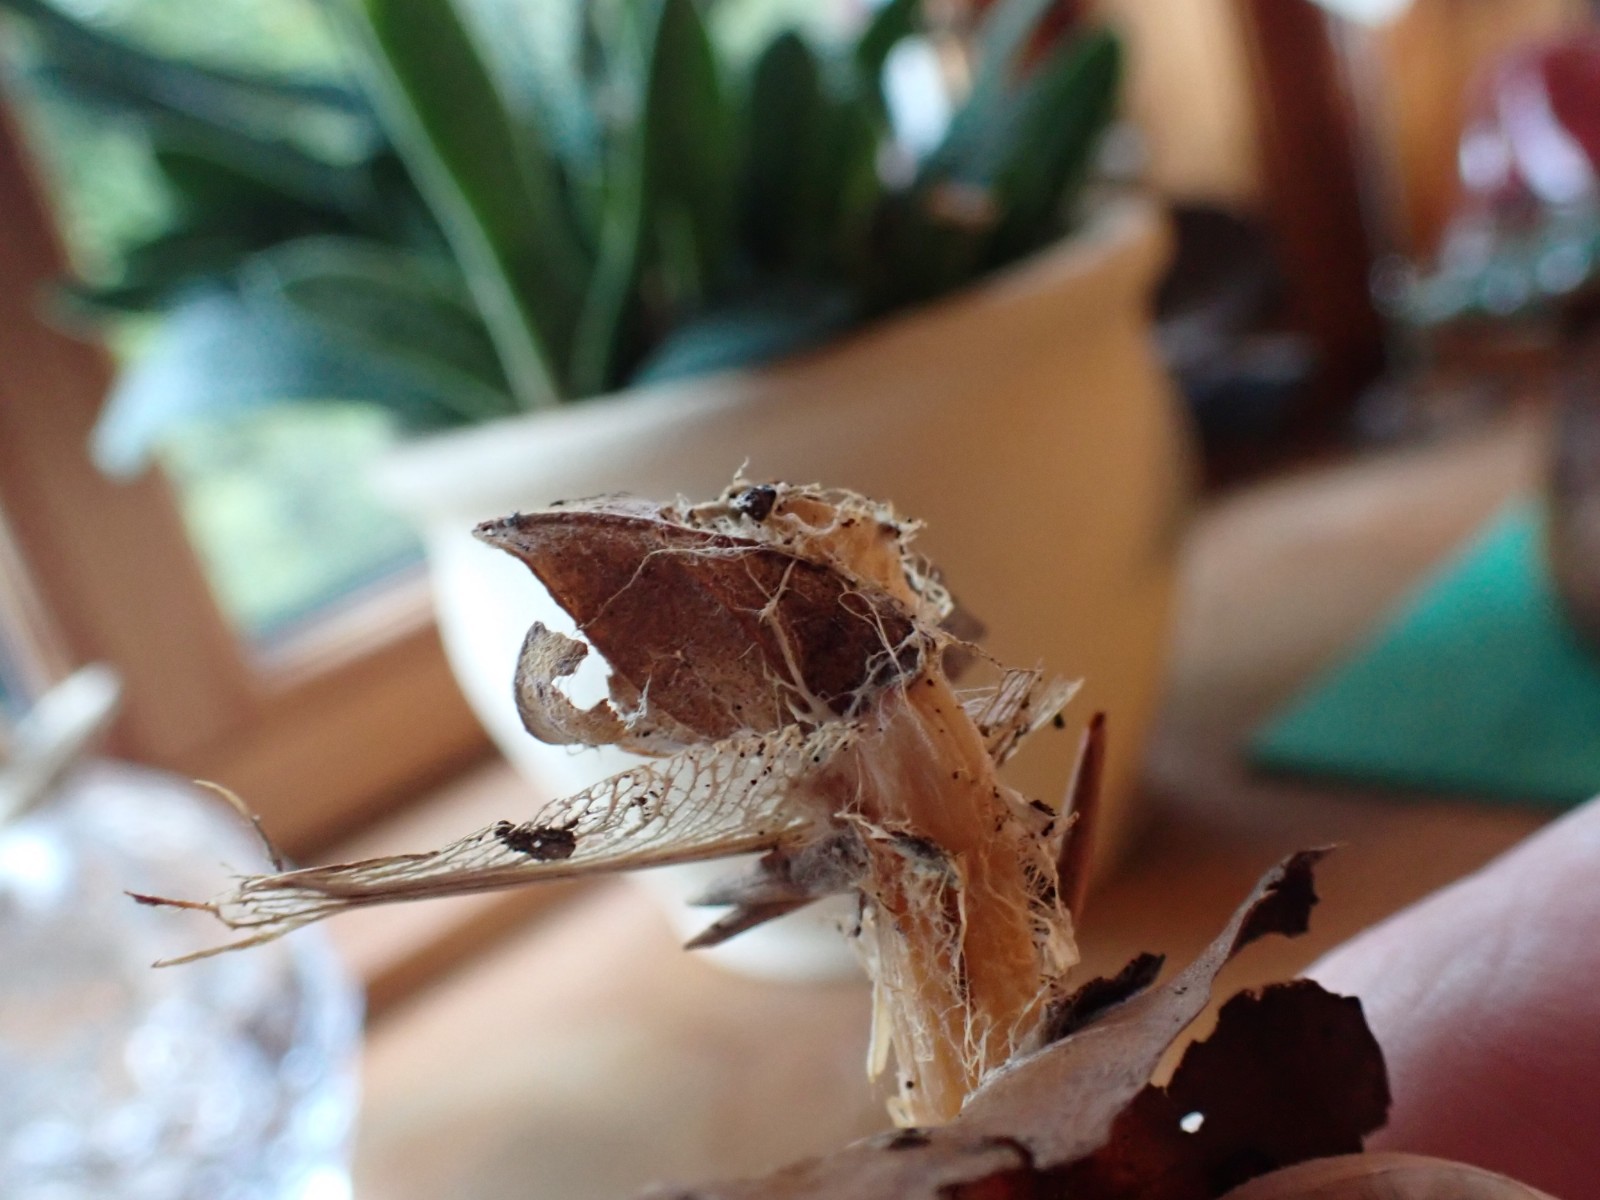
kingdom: Fungi
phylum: Basidiomycota
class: Agaricomycetes
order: Agaricales
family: Omphalotaceae
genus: Gymnopus
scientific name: Gymnopus dryophilus
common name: løv-fladhat
